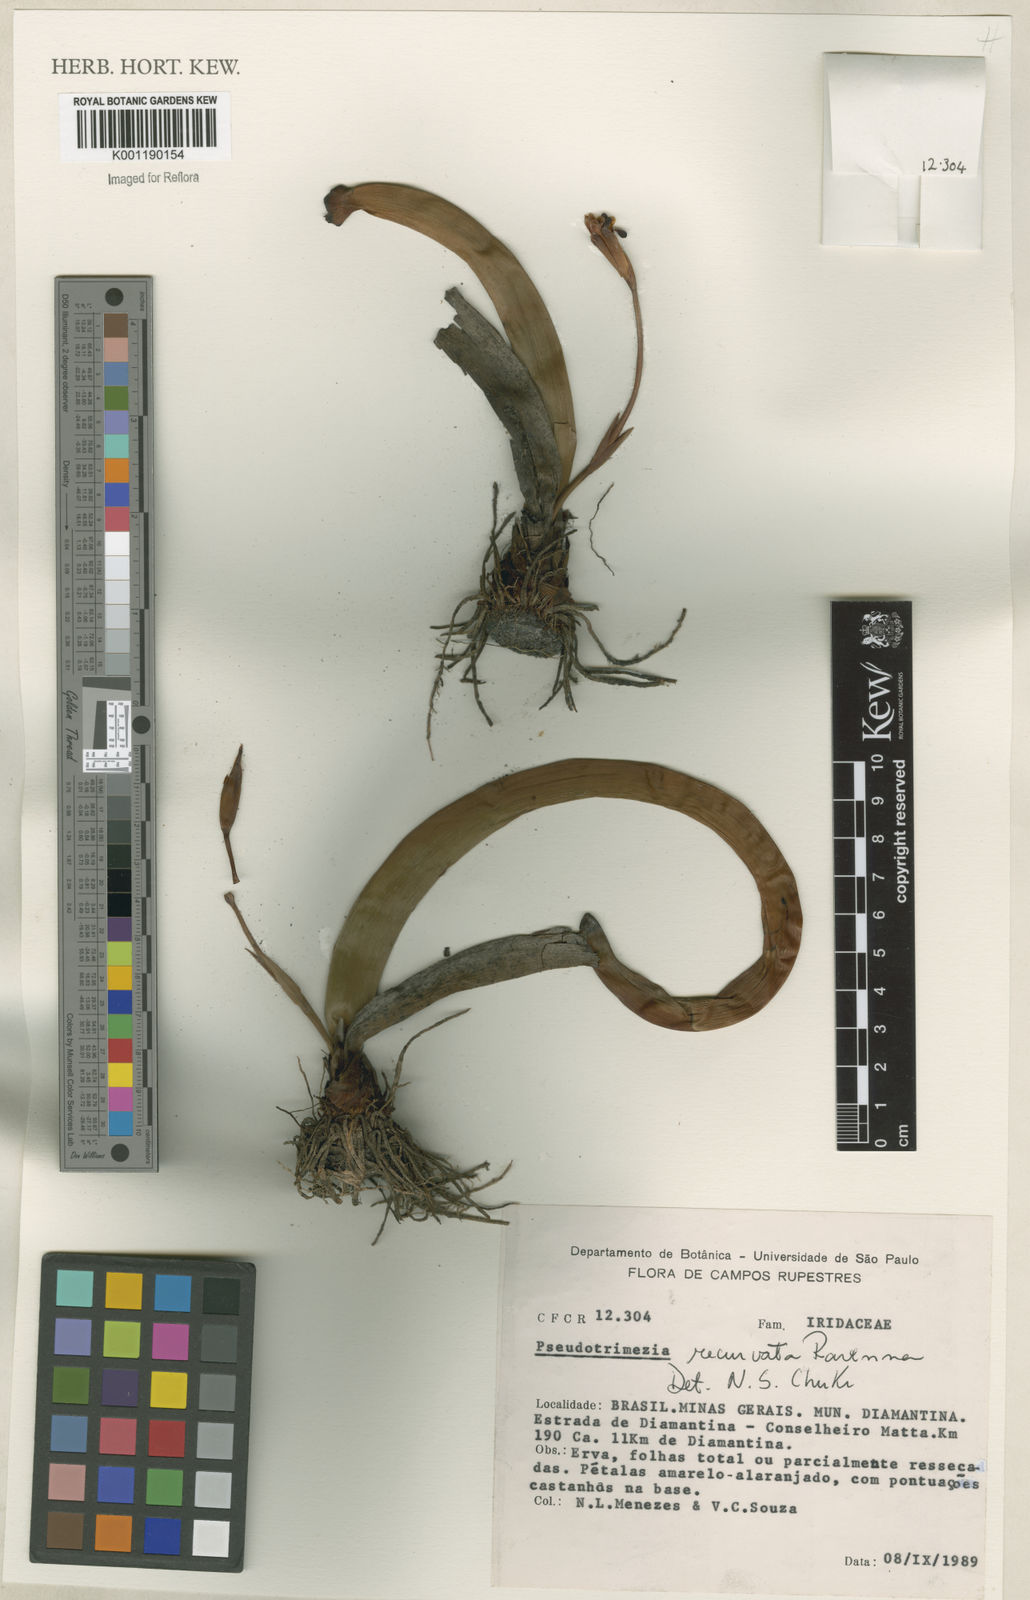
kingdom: Plantae
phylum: Tracheophyta
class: Liliopsida
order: Asparagales
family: Iridaceae
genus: Trimezia
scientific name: Trimezia recurvata
